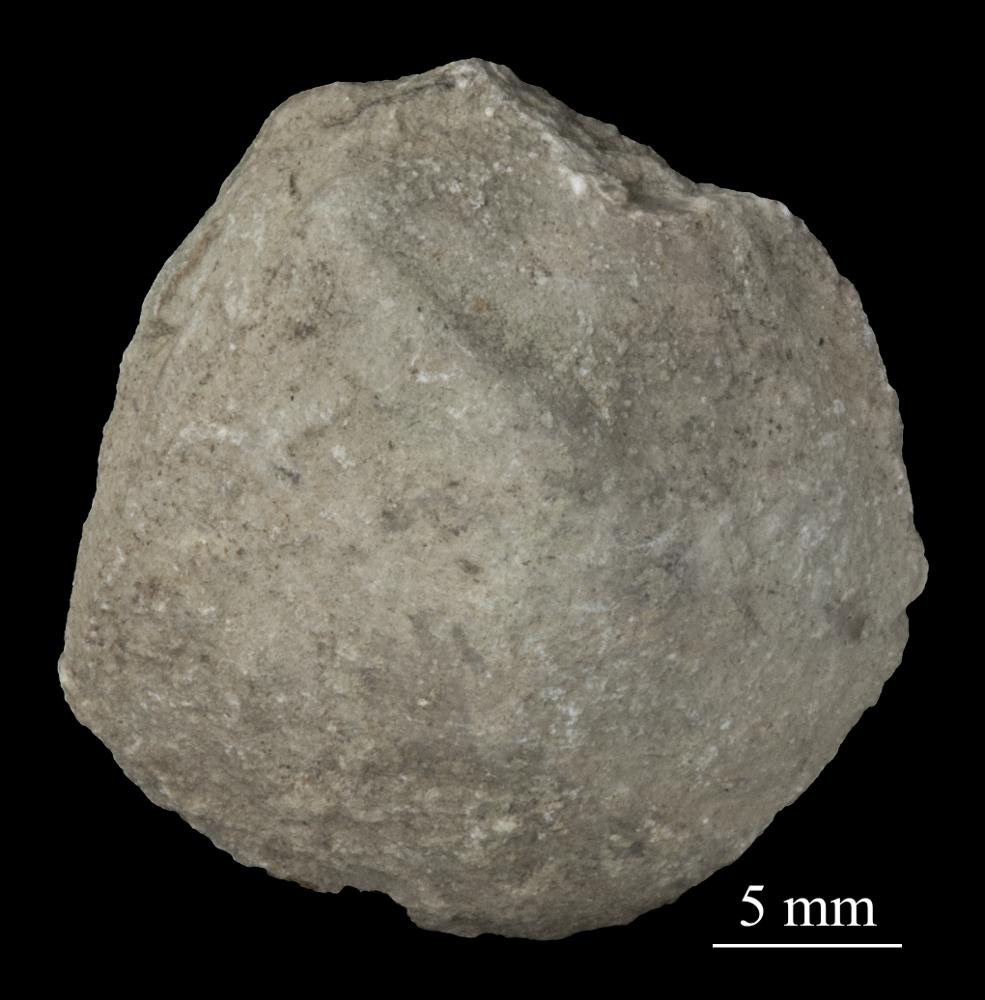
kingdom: Animalia
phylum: Mollusca
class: Bivalvia
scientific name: Bivalvia
